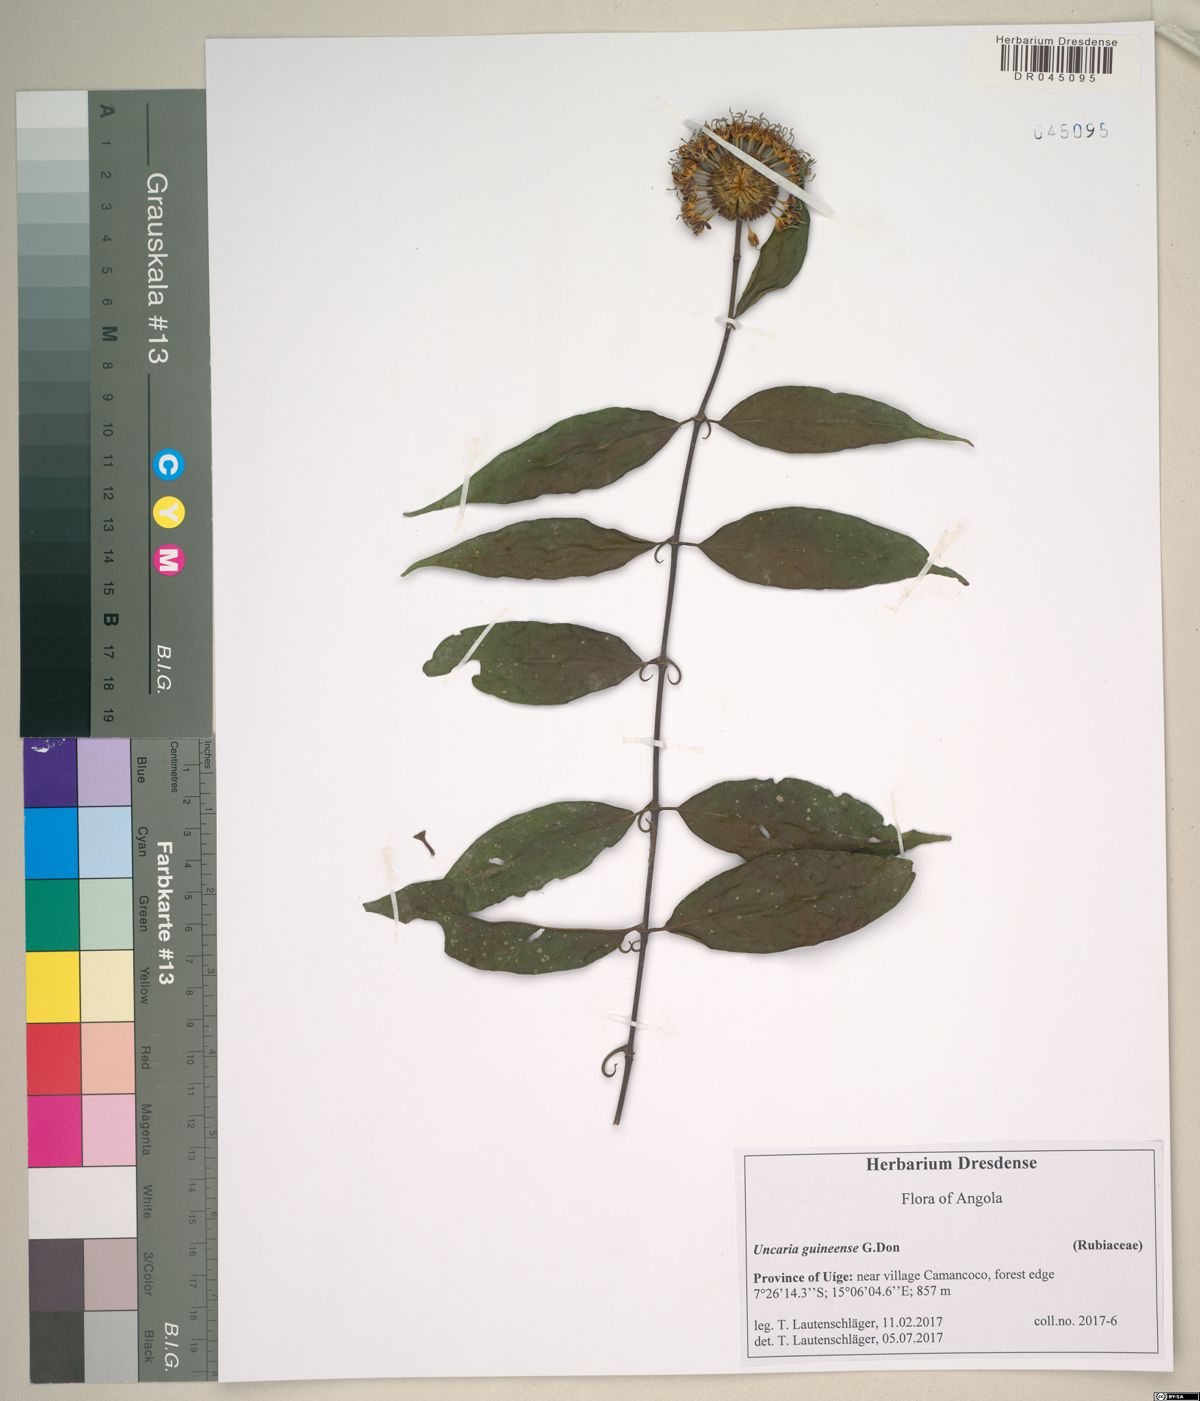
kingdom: Plantae
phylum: Tracheophyta
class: Magnoliopsida
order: Gentianales
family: Rubiaceae
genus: Uncaria
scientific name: Uncaria africana
